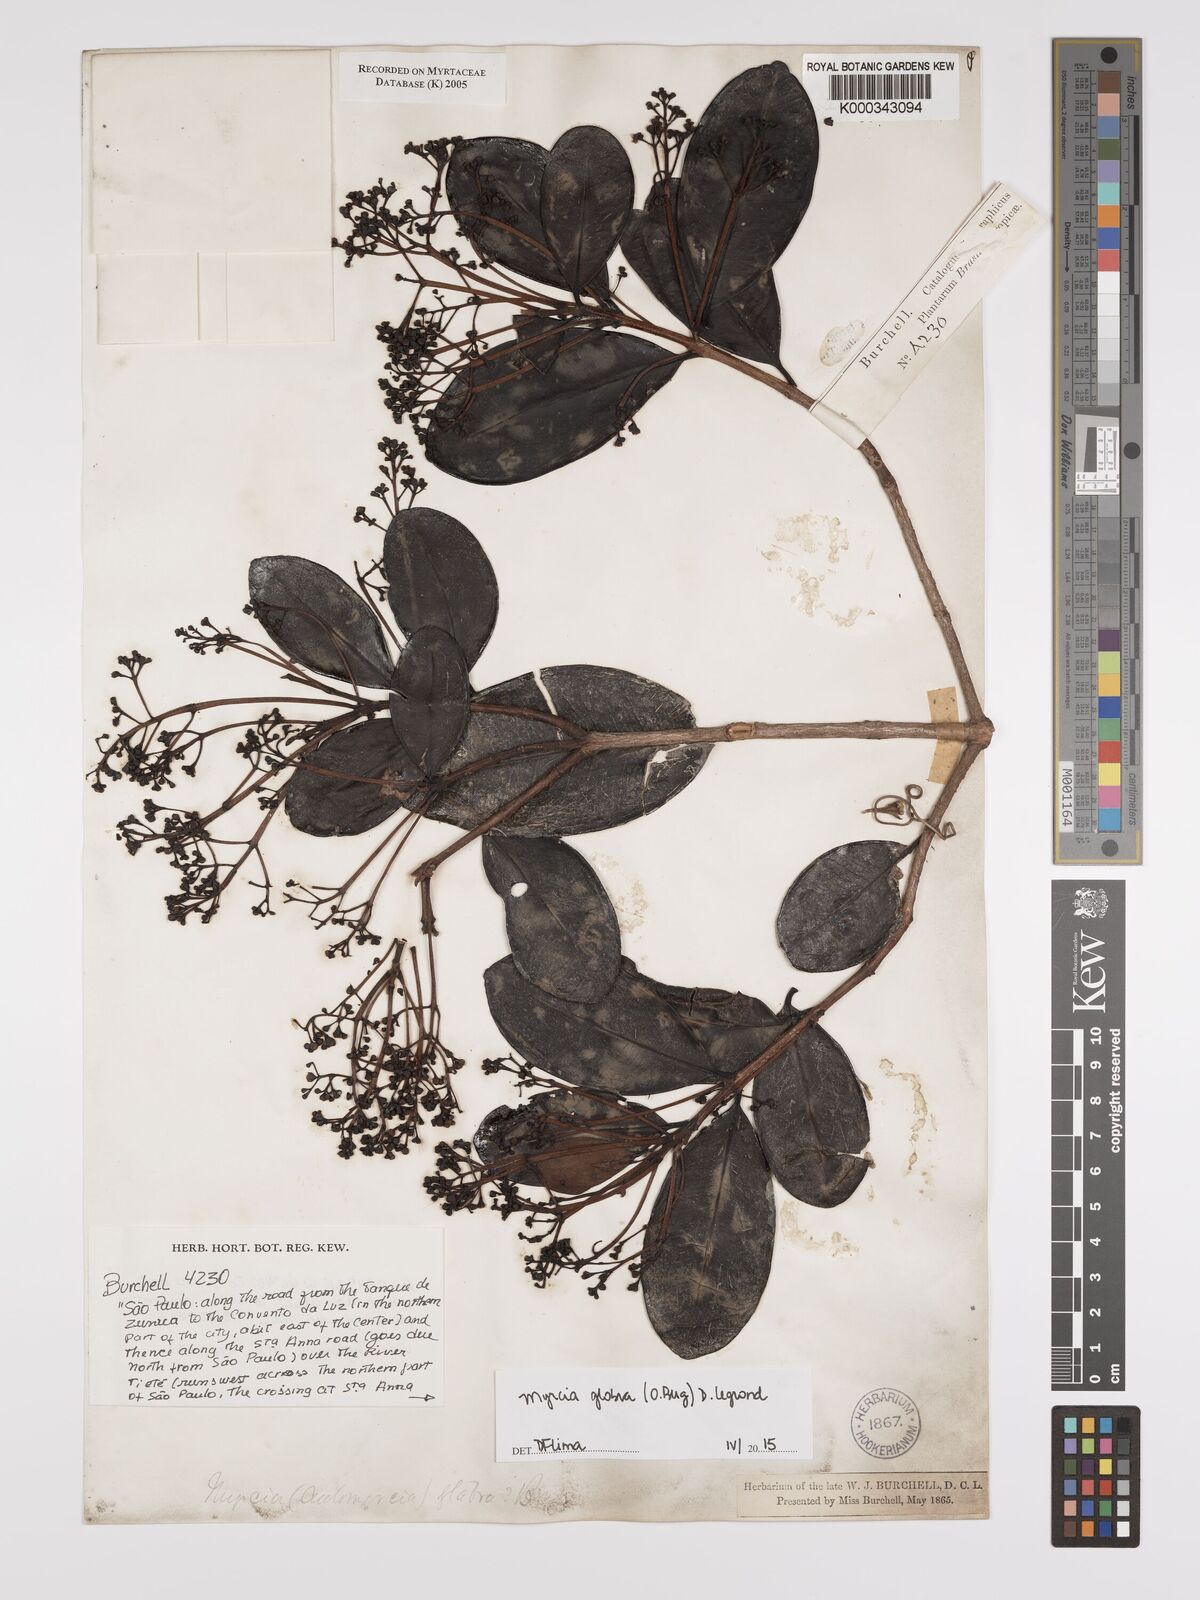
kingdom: Plantae
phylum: Tracheophyta
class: Magnoliopsida
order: Myrtales
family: Myrtaceae
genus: Myrcia
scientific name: Myrcia glabra
